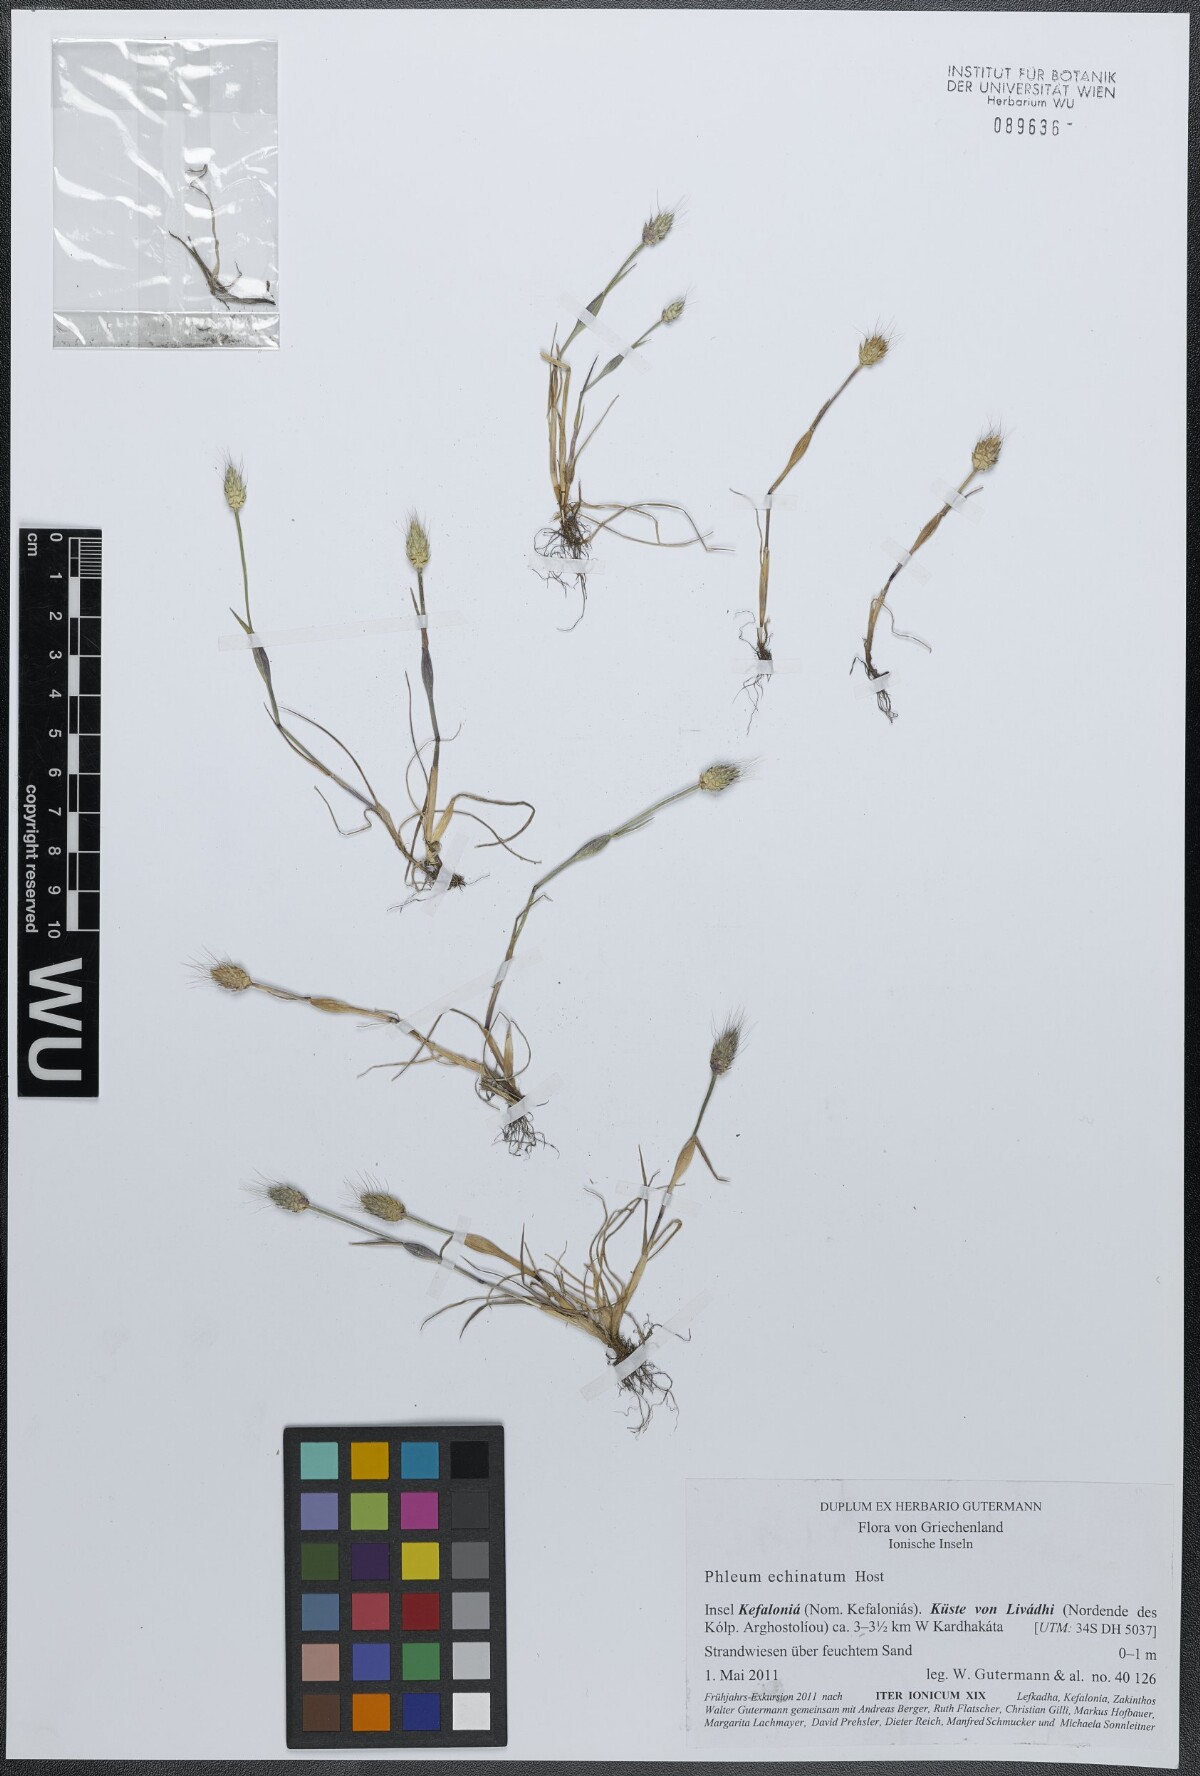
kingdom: Plantae
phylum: Tracheophyta
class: Liliopsida
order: Poales
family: Poaceae
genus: Phleum
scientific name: Phleum echinatum
